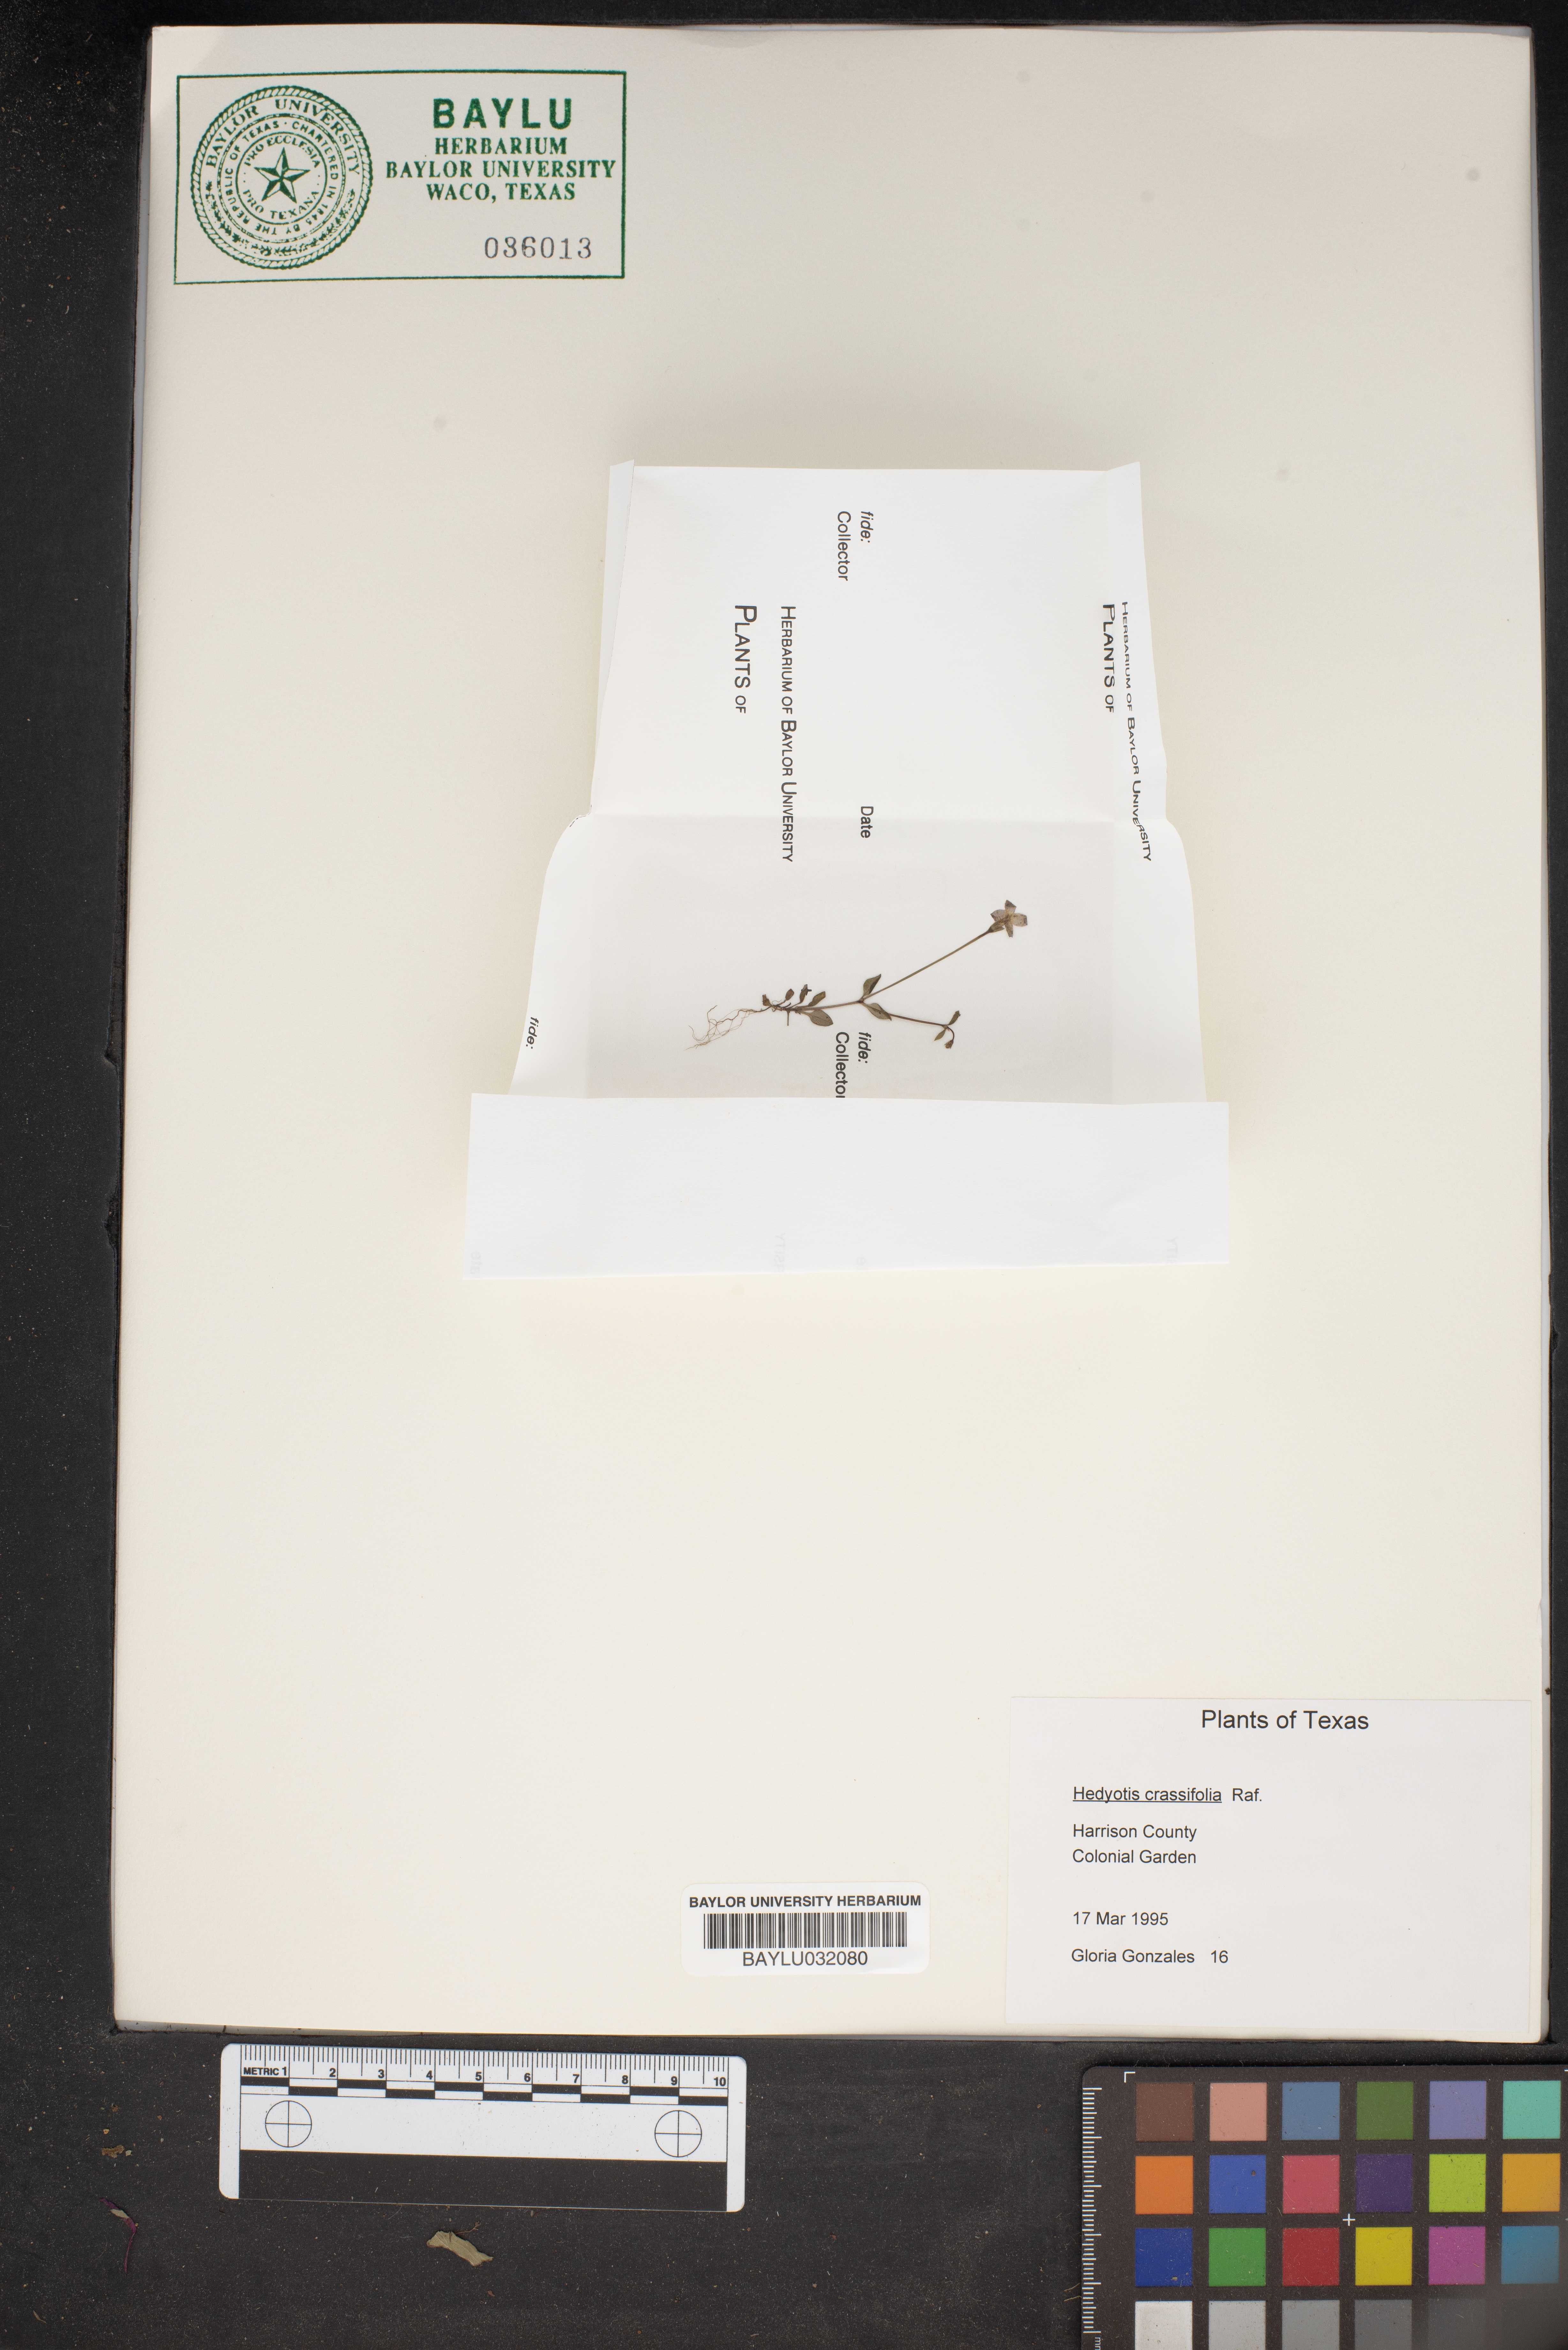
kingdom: Plantae
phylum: Tracheophyta
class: Magnoliopsida
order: Gentianales
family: Rubiaceae
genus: Houstonia
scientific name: Houstonia pusilla
